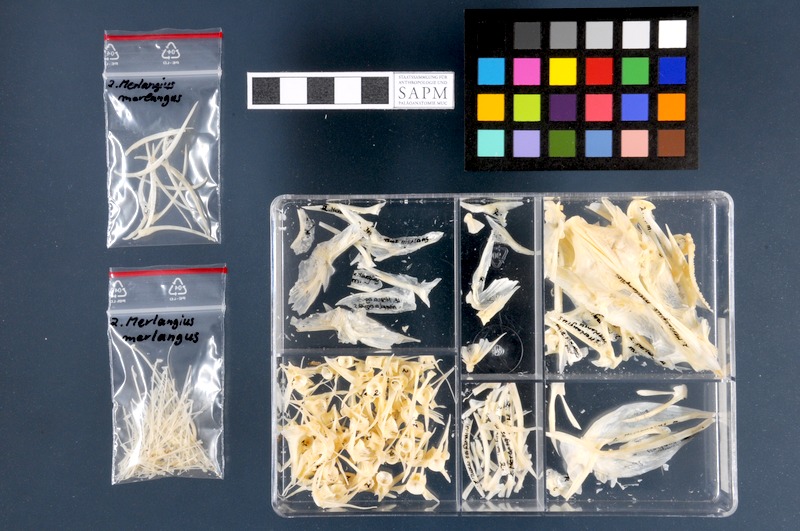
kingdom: Animalia
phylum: Chordata
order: Gadiformes
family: Gadidae
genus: Merlangius
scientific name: Merlangius merlangus
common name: Whiting
